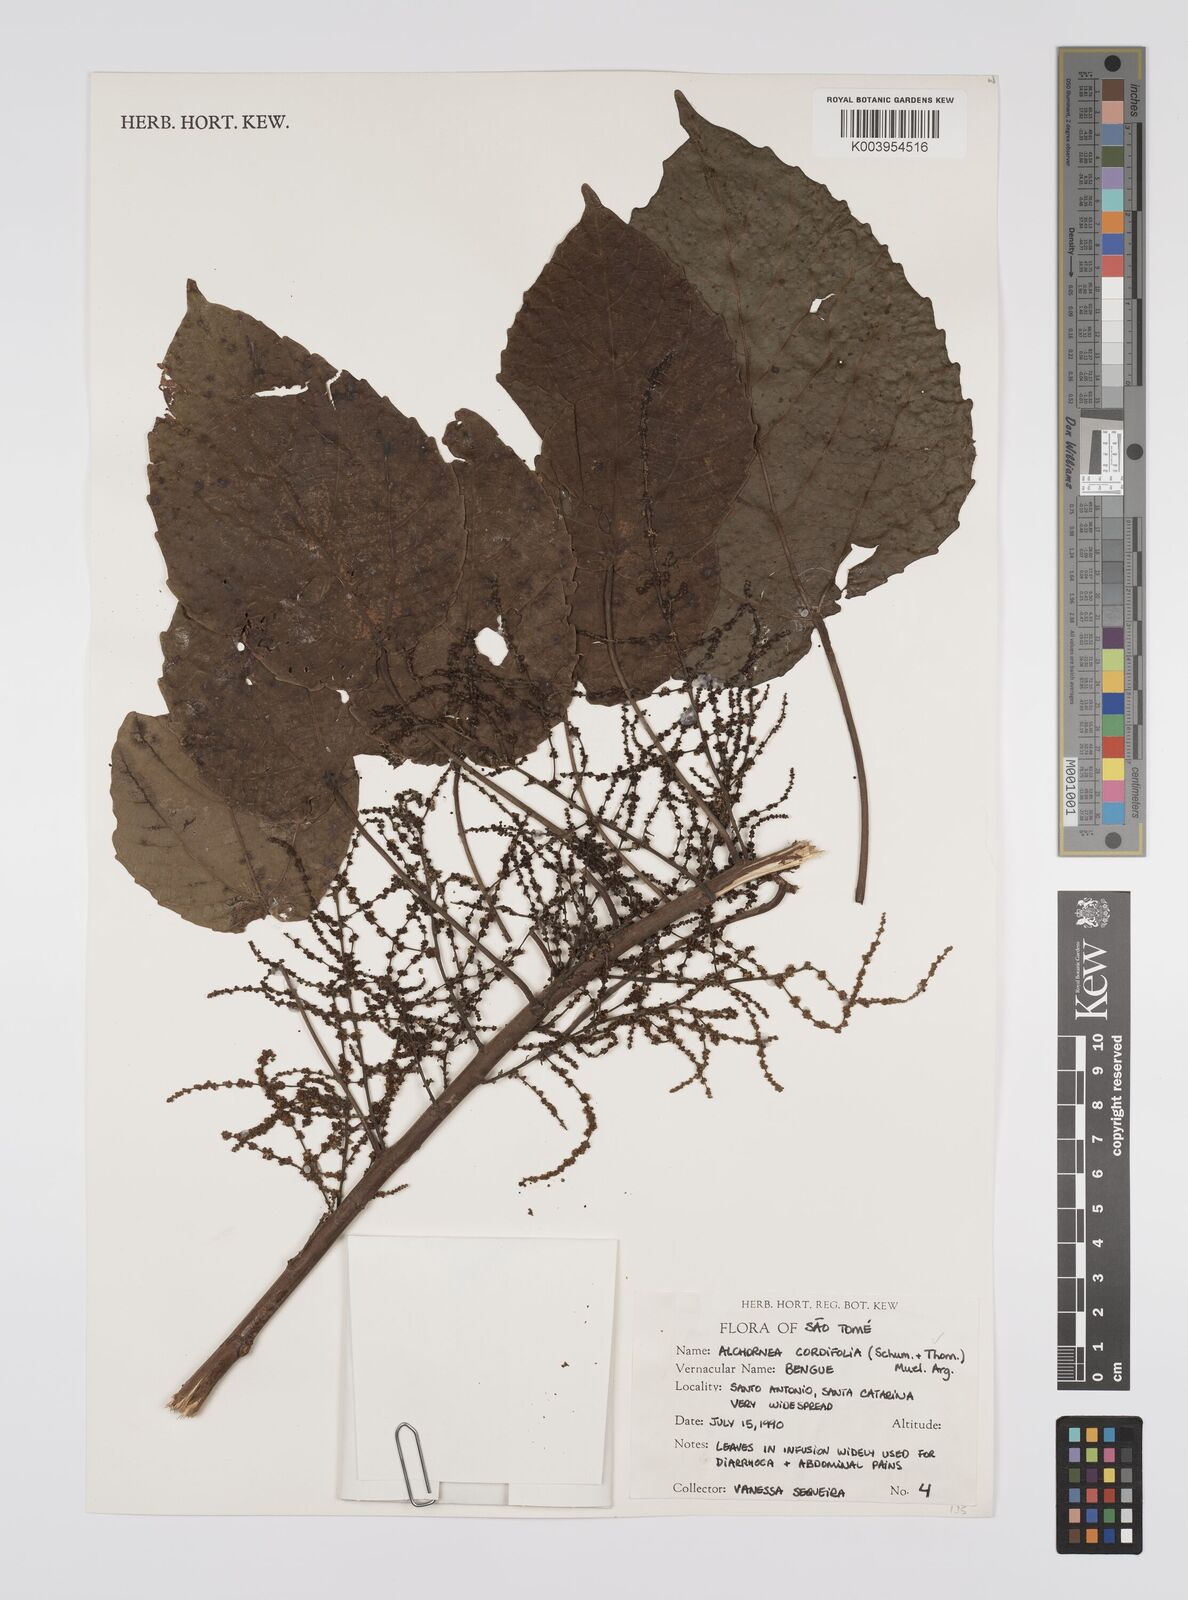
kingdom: Plantae
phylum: Tracheophyta
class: Magnoliopsida
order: Malpighiales
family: Euphorbiaceae
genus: Alchornea
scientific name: Alchornea cordifolia
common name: Christmasbush
